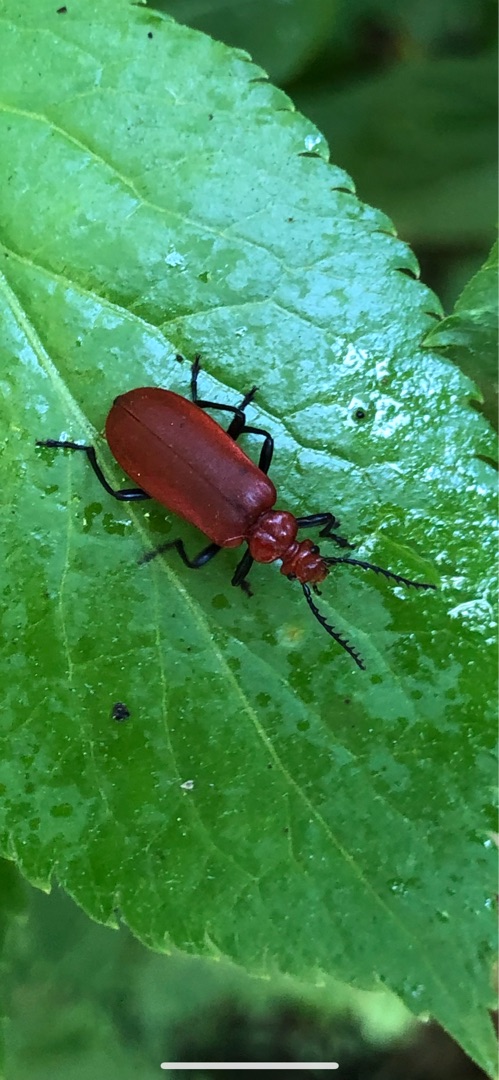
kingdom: Animalia
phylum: Arthropoda
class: Insecta
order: Coleoptera
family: Pyrochroidae
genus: Pyrochroa
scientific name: Pyrochroa serraticornis
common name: Rødhovedet kardinalbille
